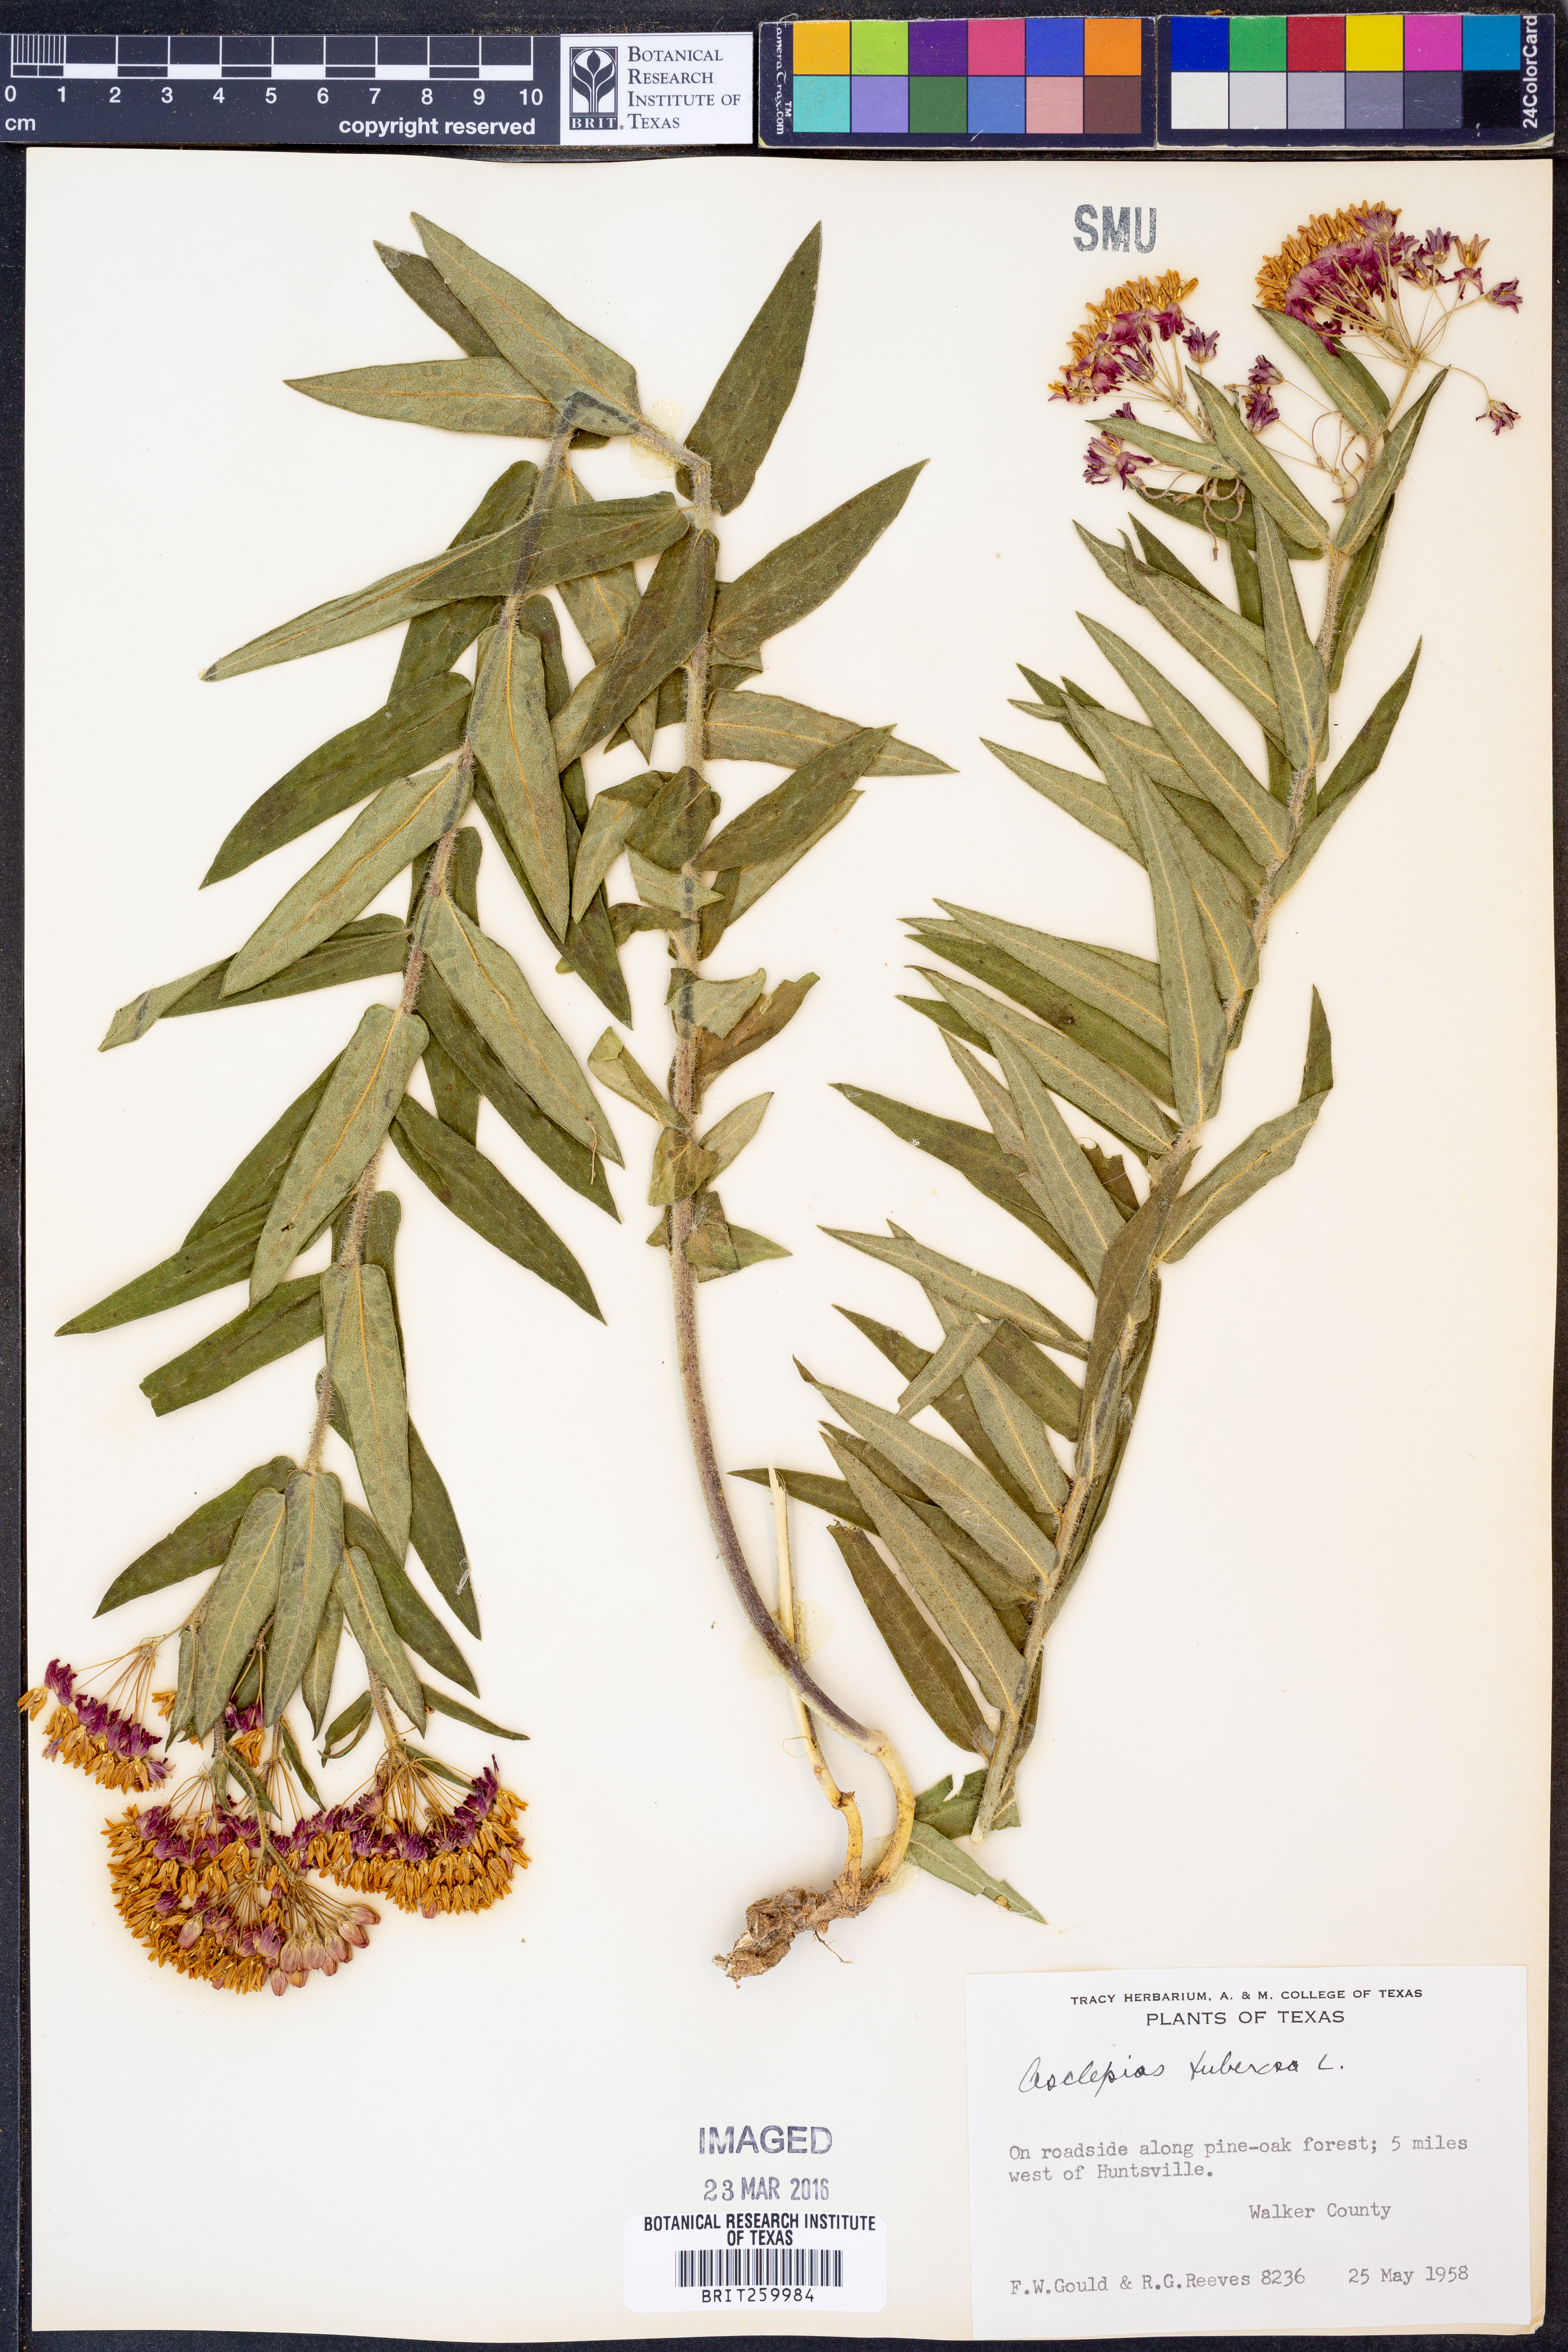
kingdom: Plantae
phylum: Tracheophyta
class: Magnoliopsida
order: Gentianales
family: Apocynaceae
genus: Asclepias
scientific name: Asclepias tuberosa
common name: Butterfly milkweed
